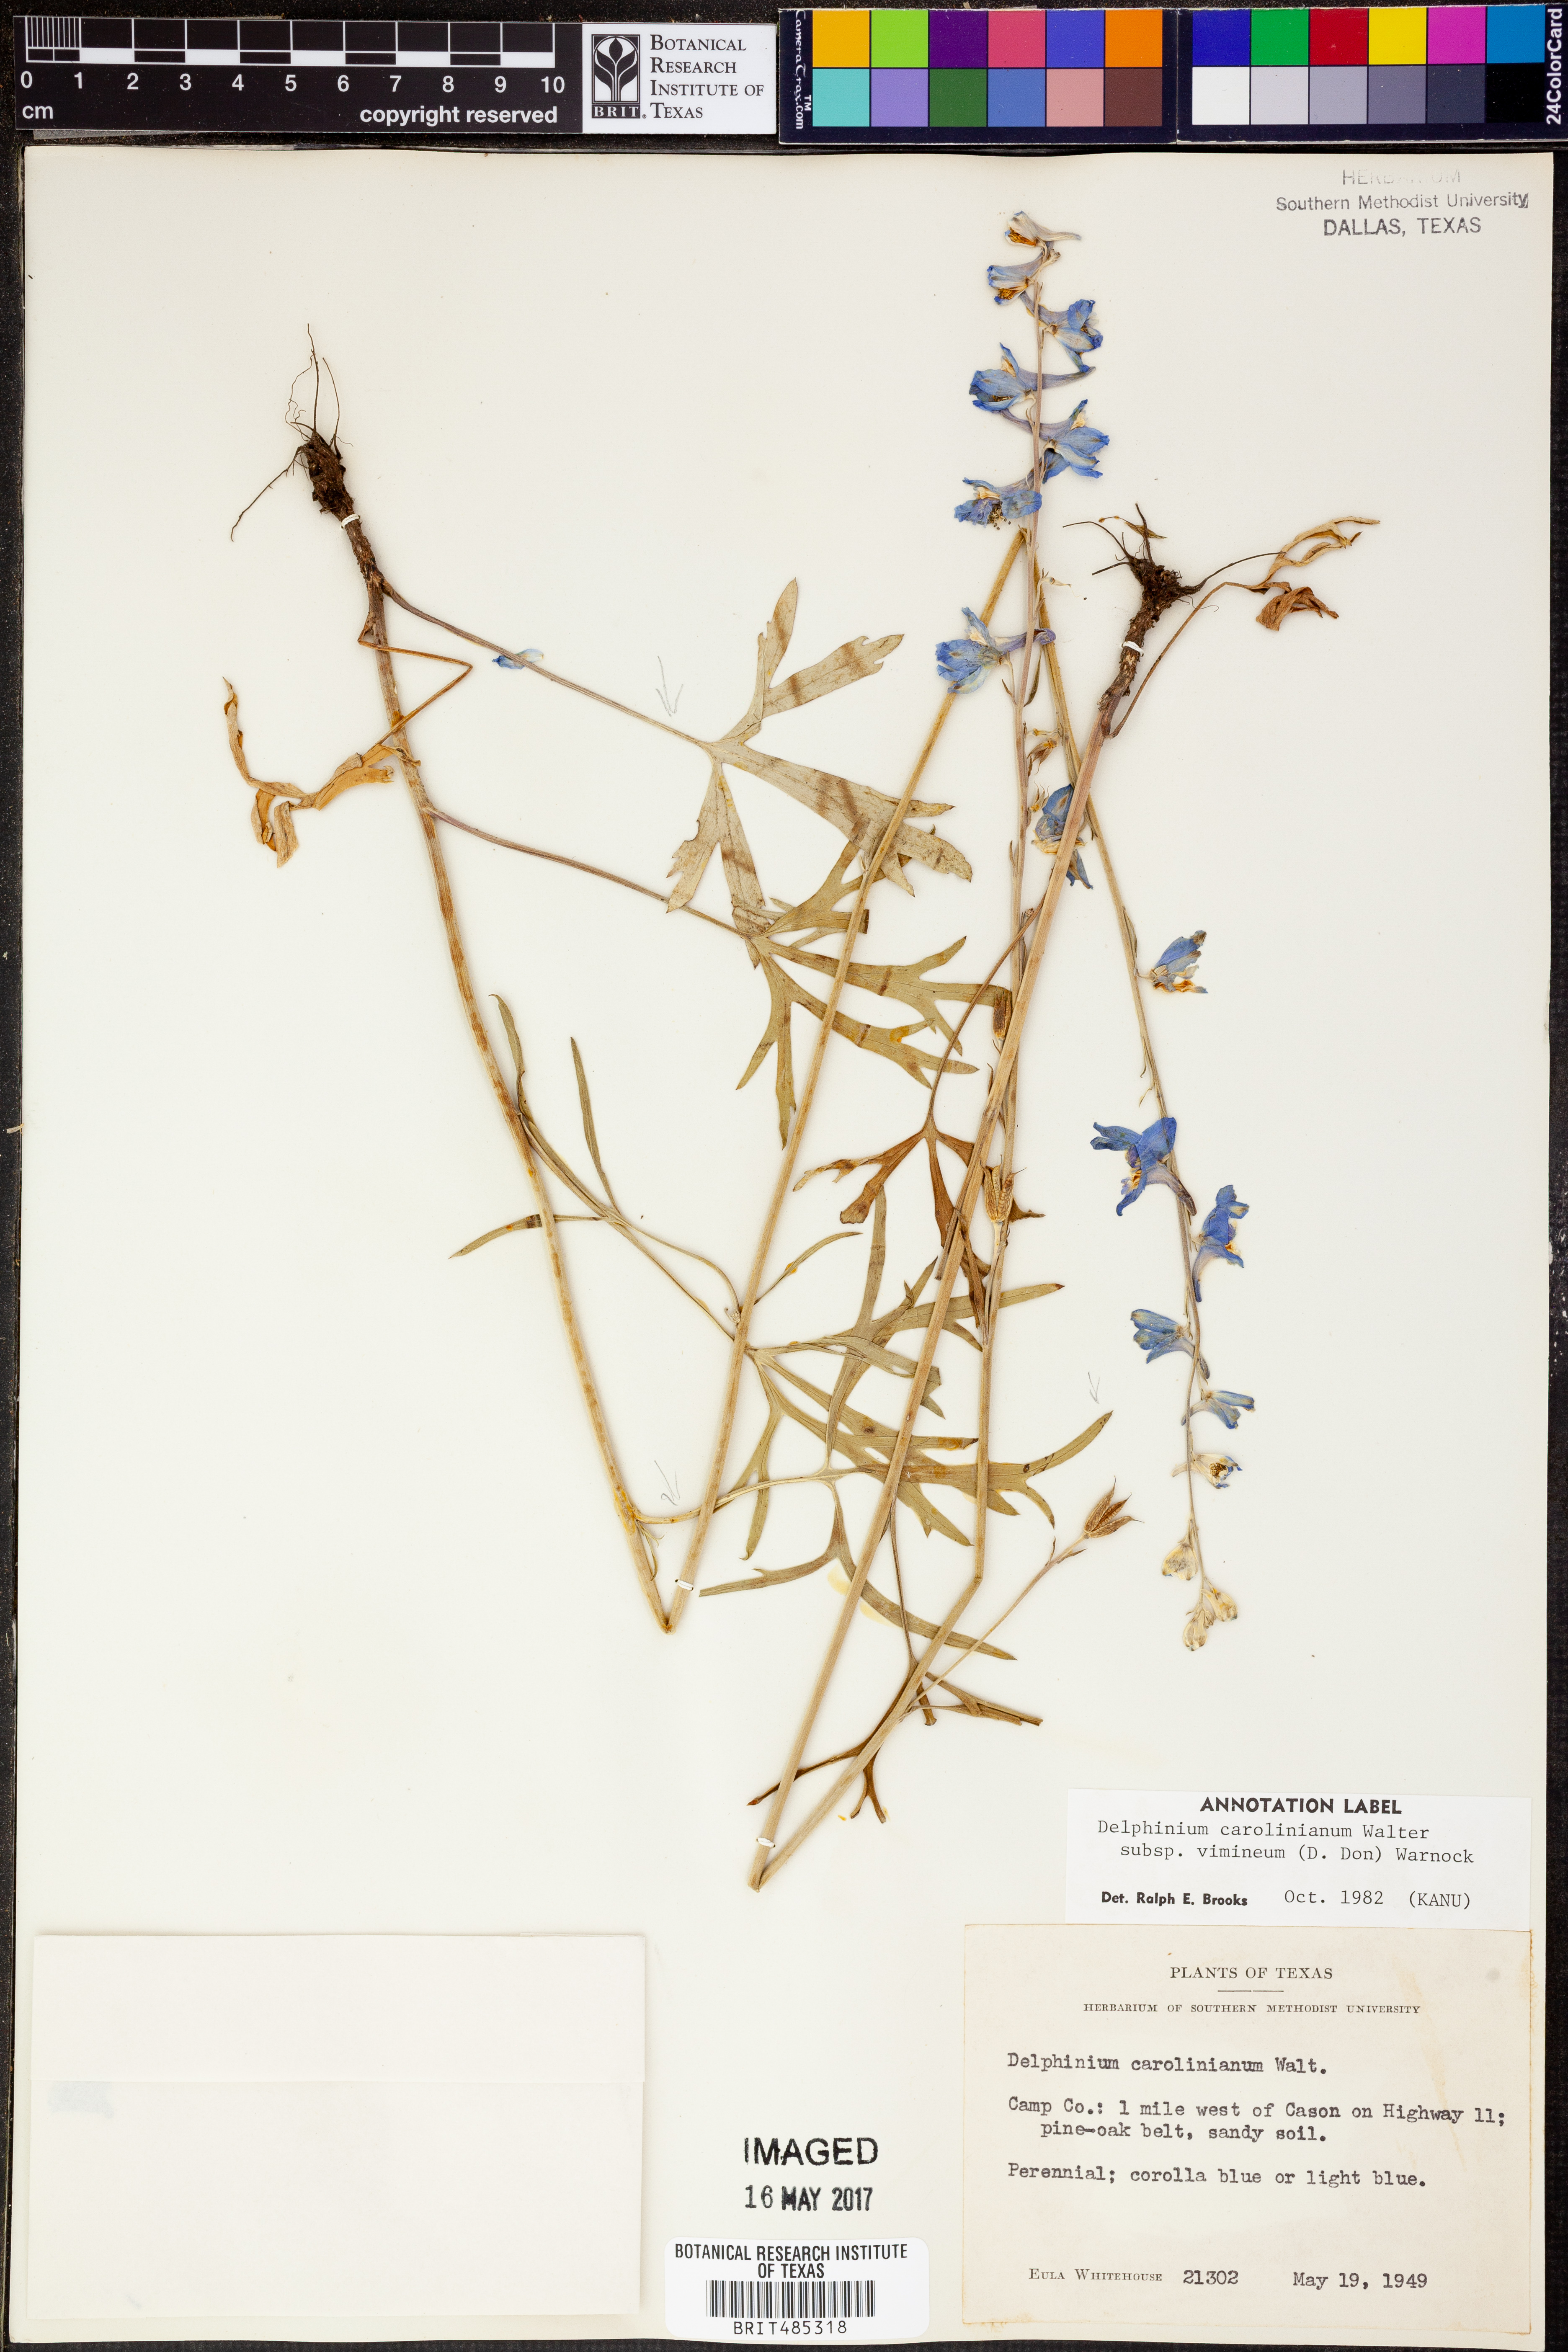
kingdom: Plantae
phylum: Tracheophyta
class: Magnoliopsida
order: Ranunculales
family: Ranunculaceae
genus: Delphinium
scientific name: Delphinium carolinianum
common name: Carolina larkspur
